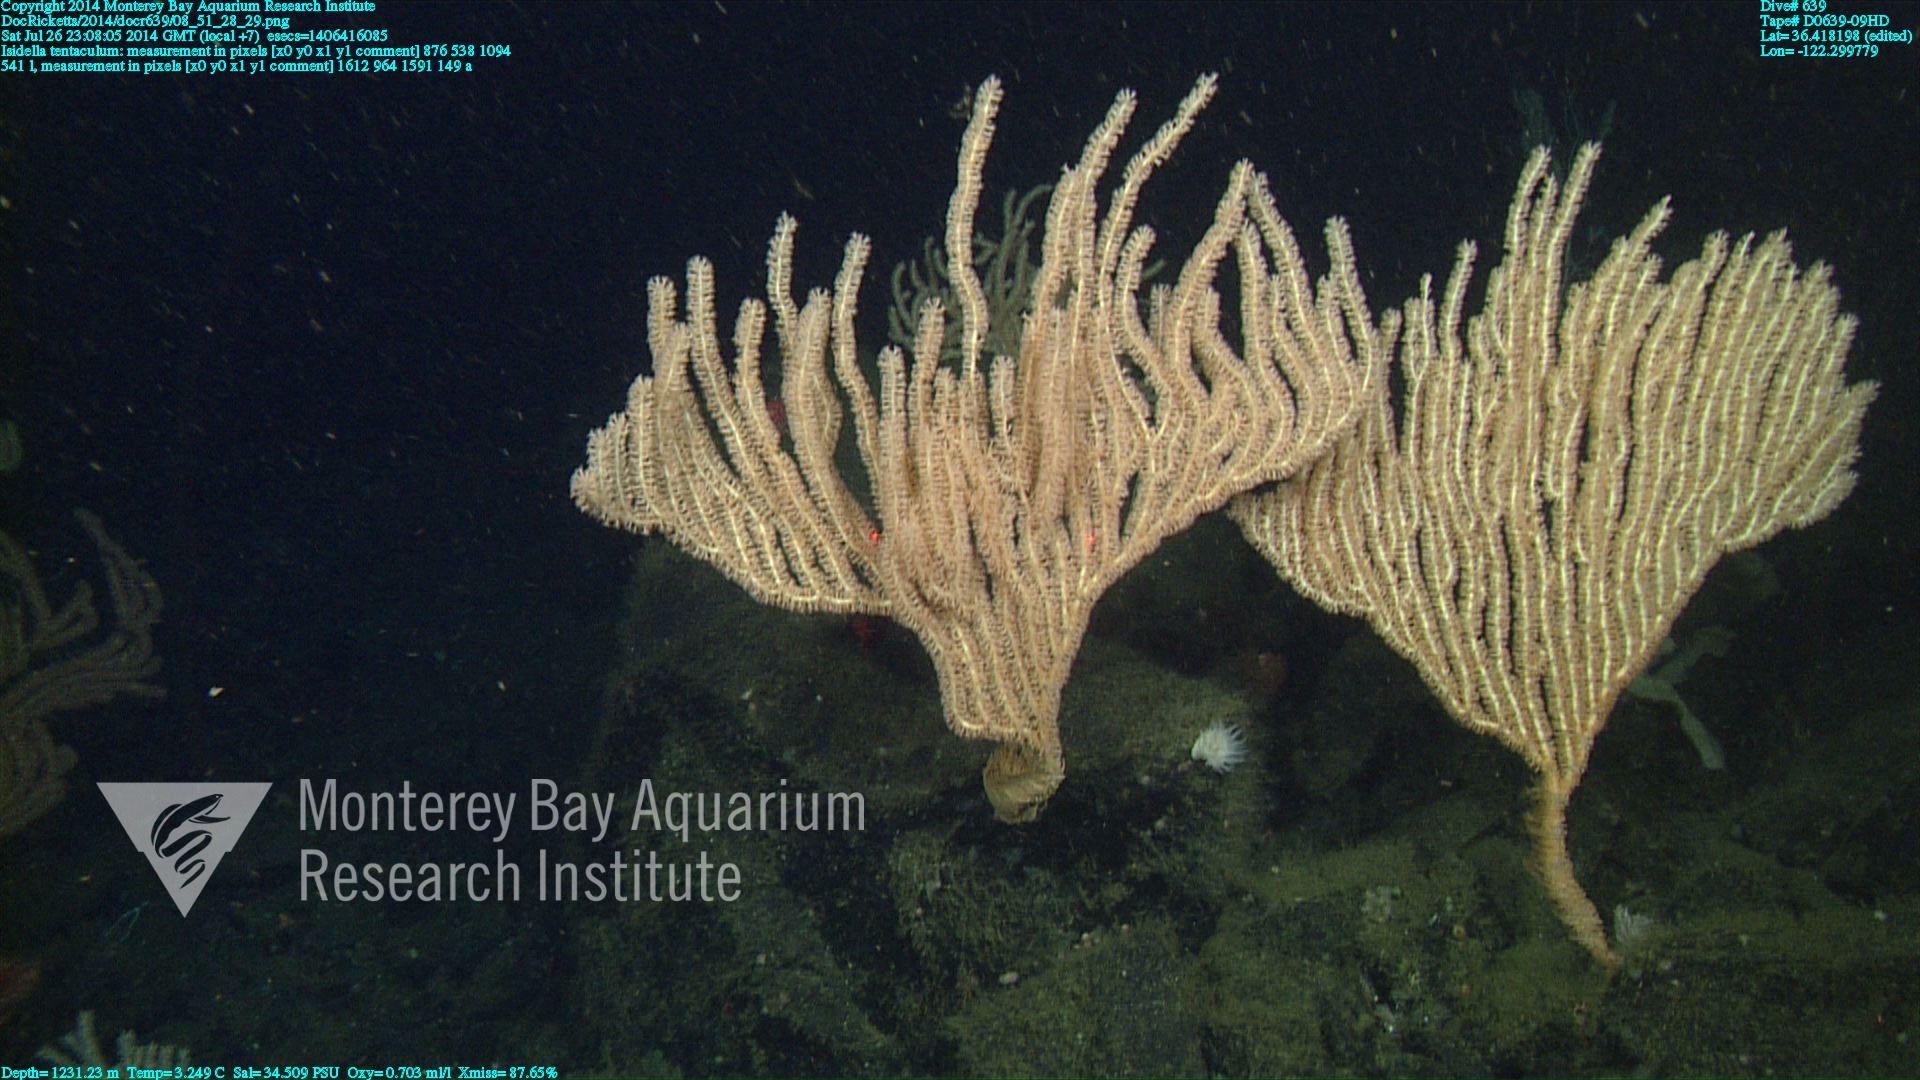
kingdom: Animalia
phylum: Cnidaria
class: Anthozoa
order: Scleralcyonacea
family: Keratoisididae
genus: Isidella
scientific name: Isidella tentaculum
